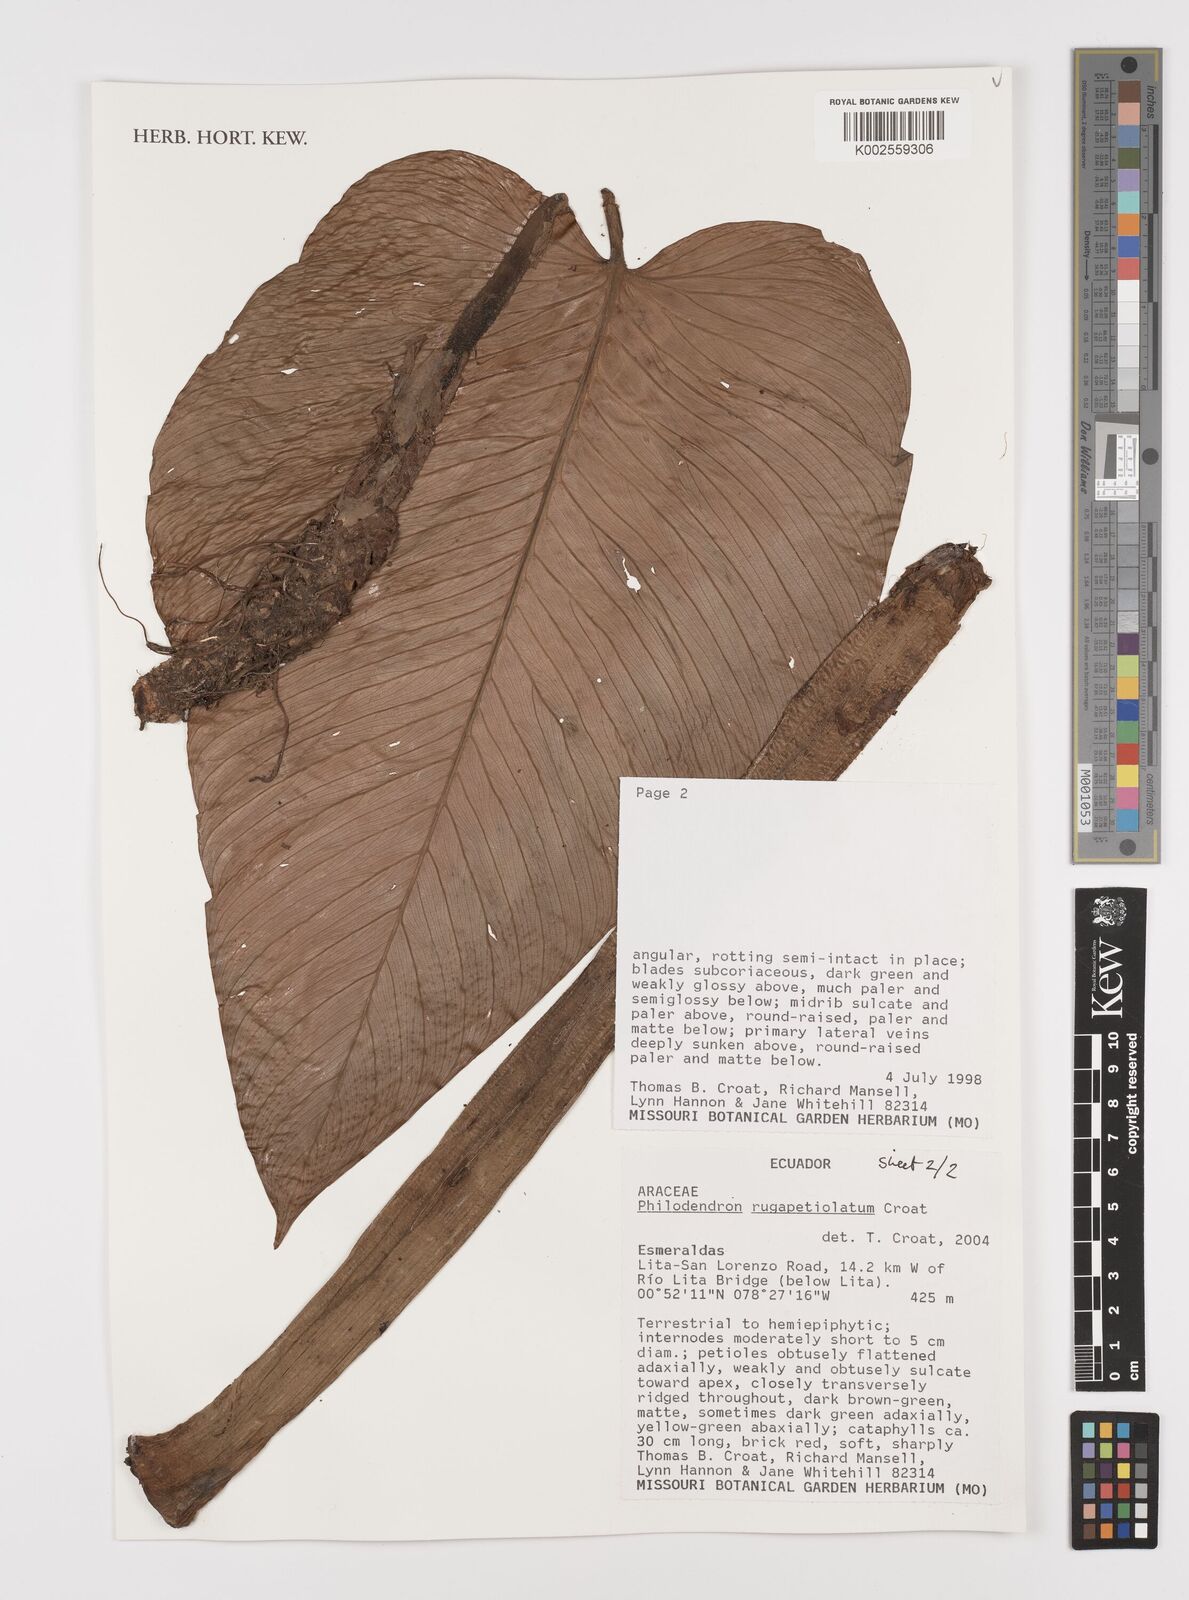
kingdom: Plantae
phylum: Tracheophyta
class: Liliopsida
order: Alismatales
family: Araceae
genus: Philodendron
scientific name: Philodendron rugapetiolatum
